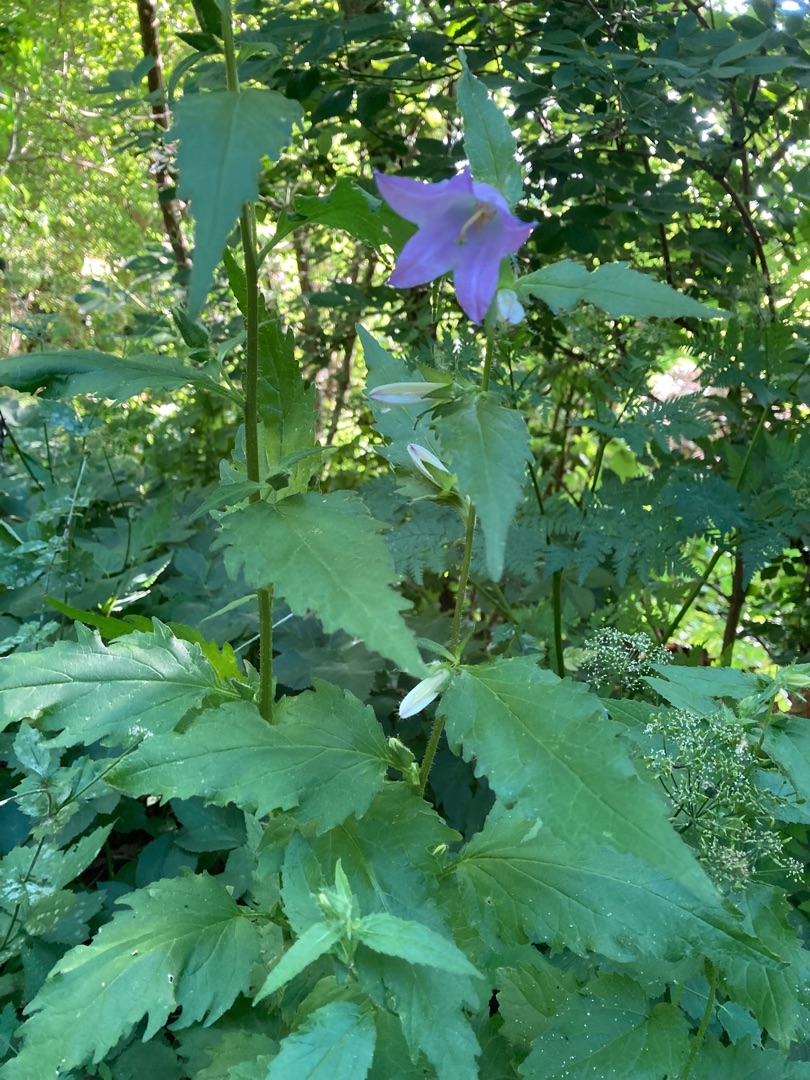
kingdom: Plantae
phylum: Tracheophyta
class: Magnoliopsida
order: Asterales
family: Campanulaceae
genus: Campanula
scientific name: Campanula trachelium
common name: Nælde-klokke
